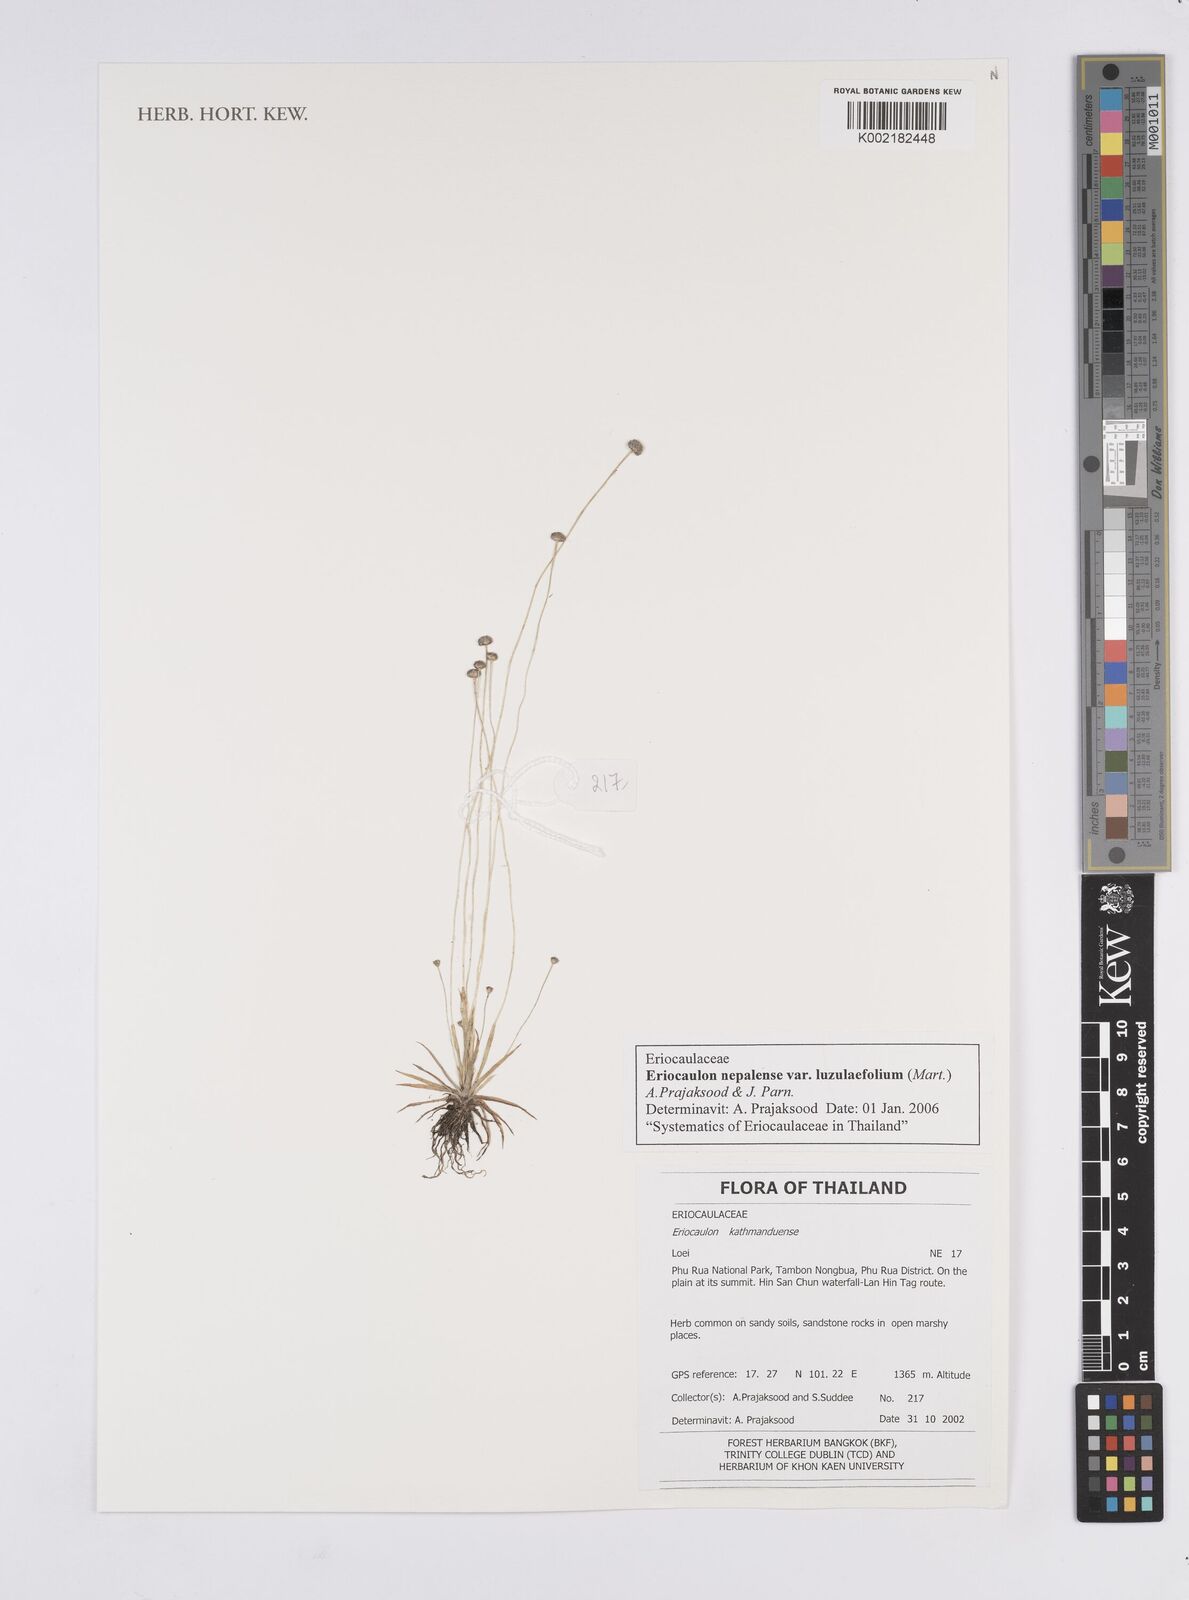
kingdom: Plantae
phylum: Tracheophyta
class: Liliopsida
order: Poales
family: Eriocaulaceae
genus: Eriocaulon
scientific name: Eriocaulon nepalense
